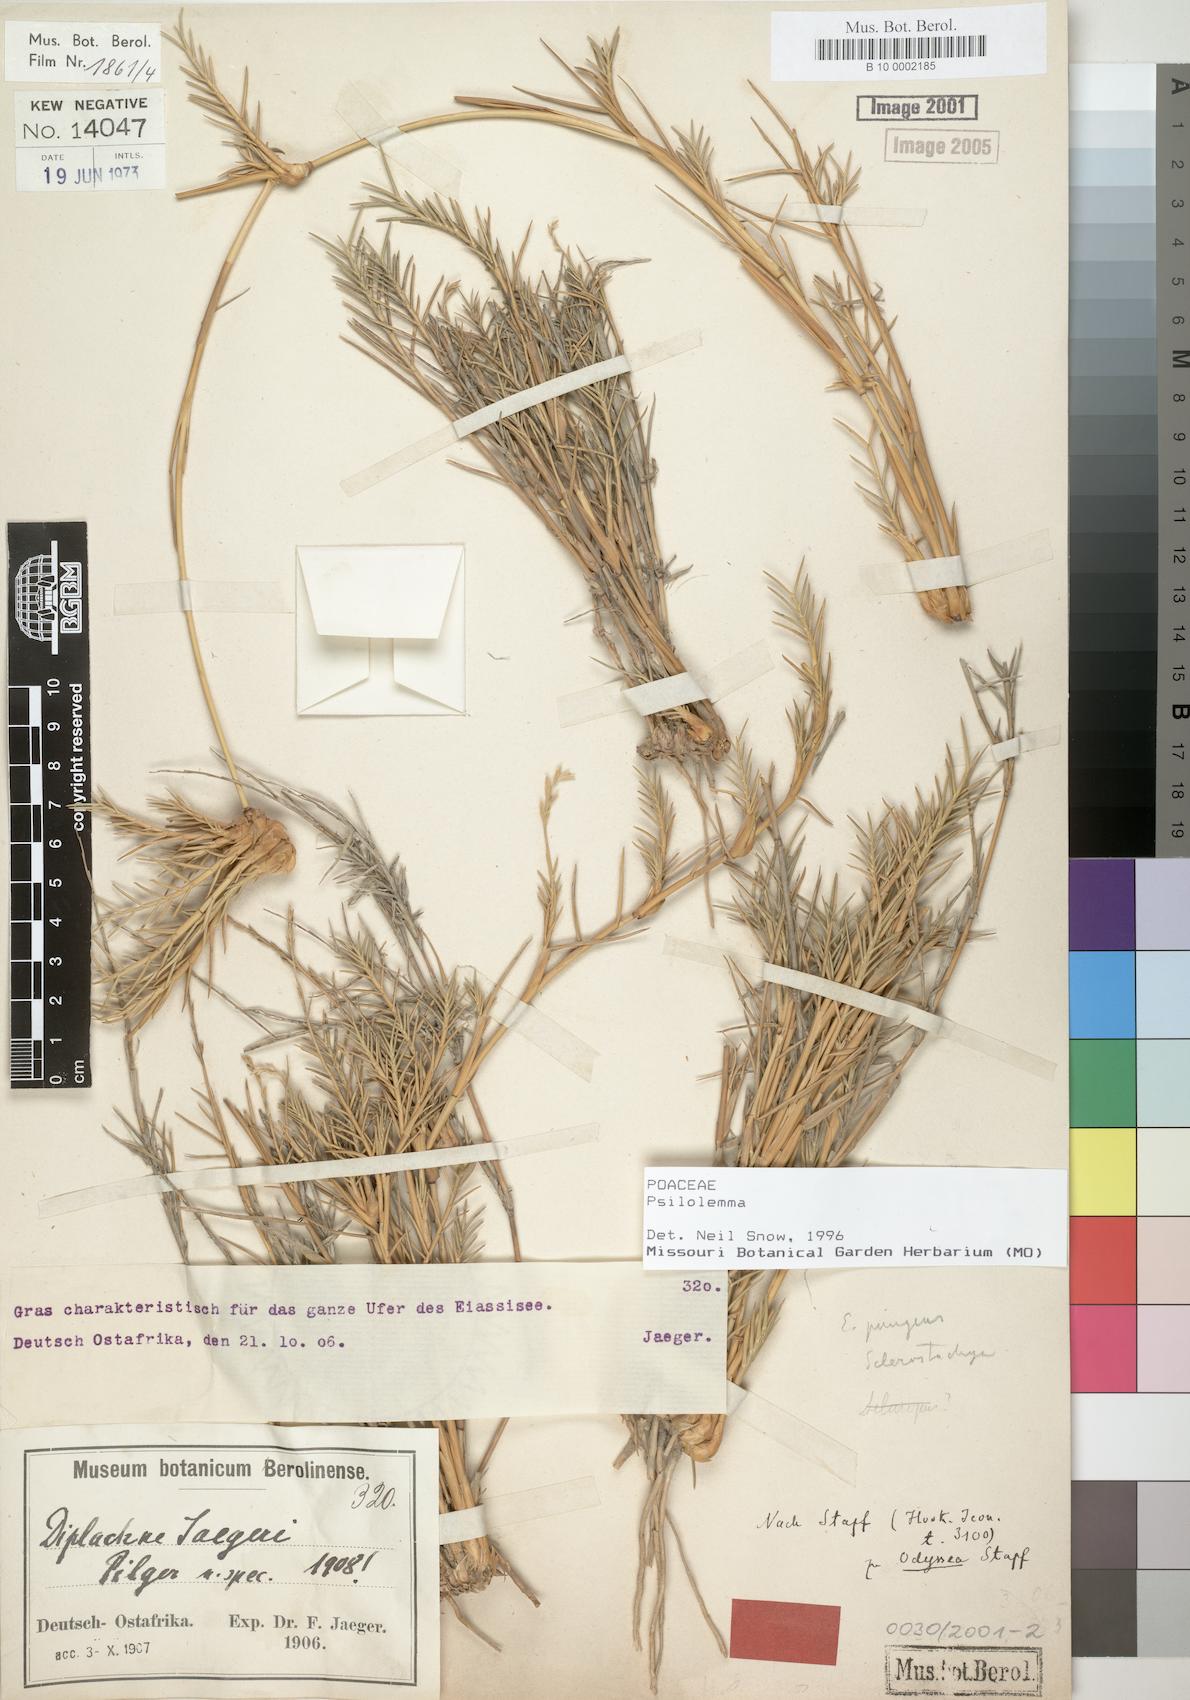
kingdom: Plantae
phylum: Tracheophyta
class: Liliopsida
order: Poales
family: Poaceae
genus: Psilolemma
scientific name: Psilolemma
